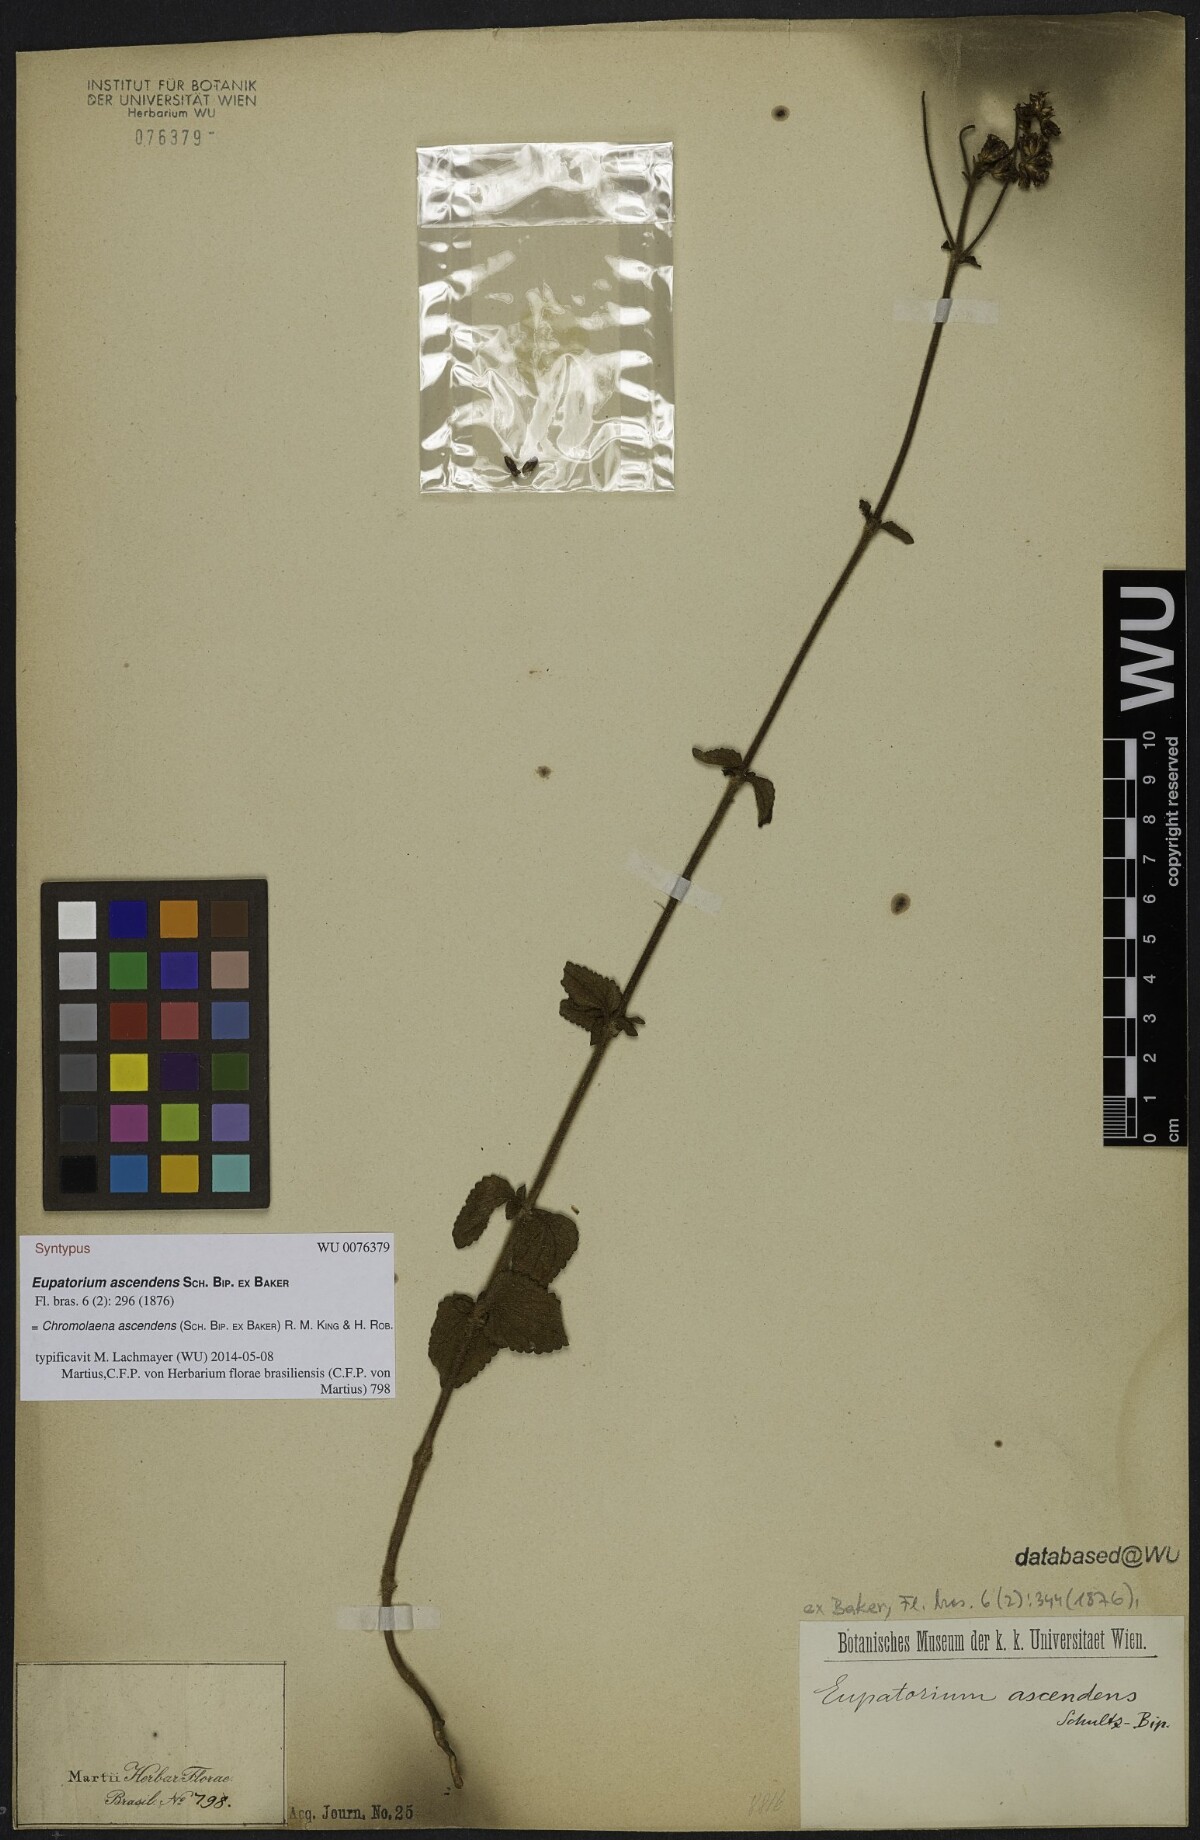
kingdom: Plantae
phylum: Tracheophyta
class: Magnoliopsida
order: Asterales
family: Asteraceae
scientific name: Asteraceae
